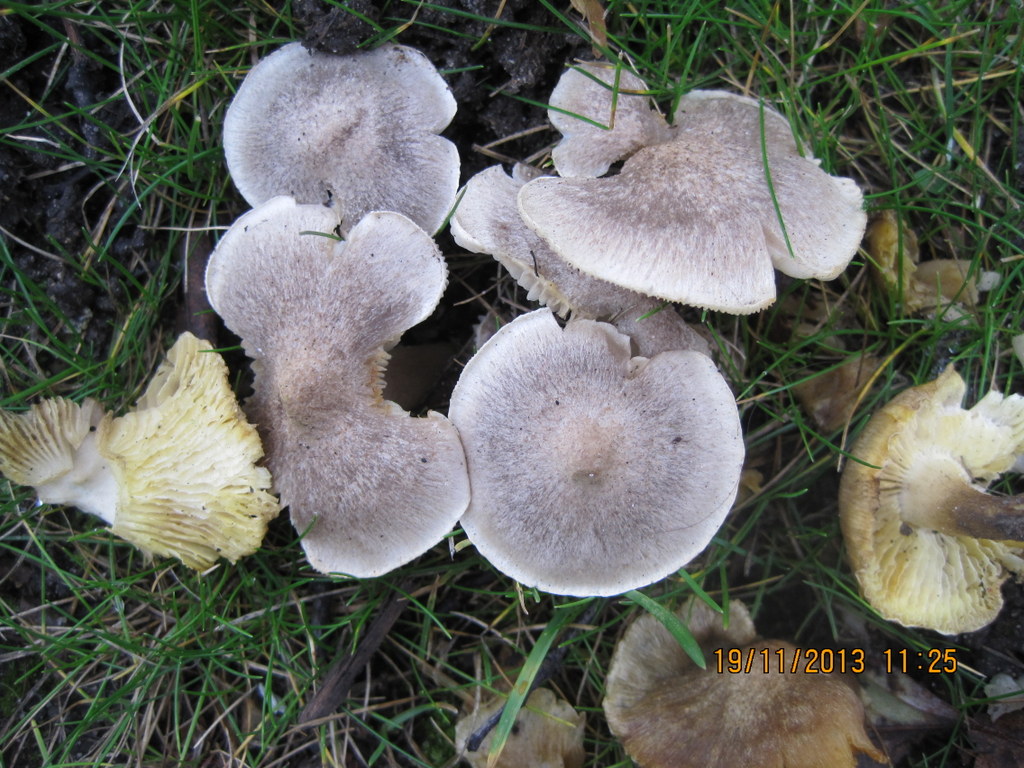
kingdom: Fungi
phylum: Basidiomycota
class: Agaricomycetes
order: Agaricales
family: Tricholomataceae
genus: Tricholoma
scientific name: Tricholoma argyraceum
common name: spids ridderhat
